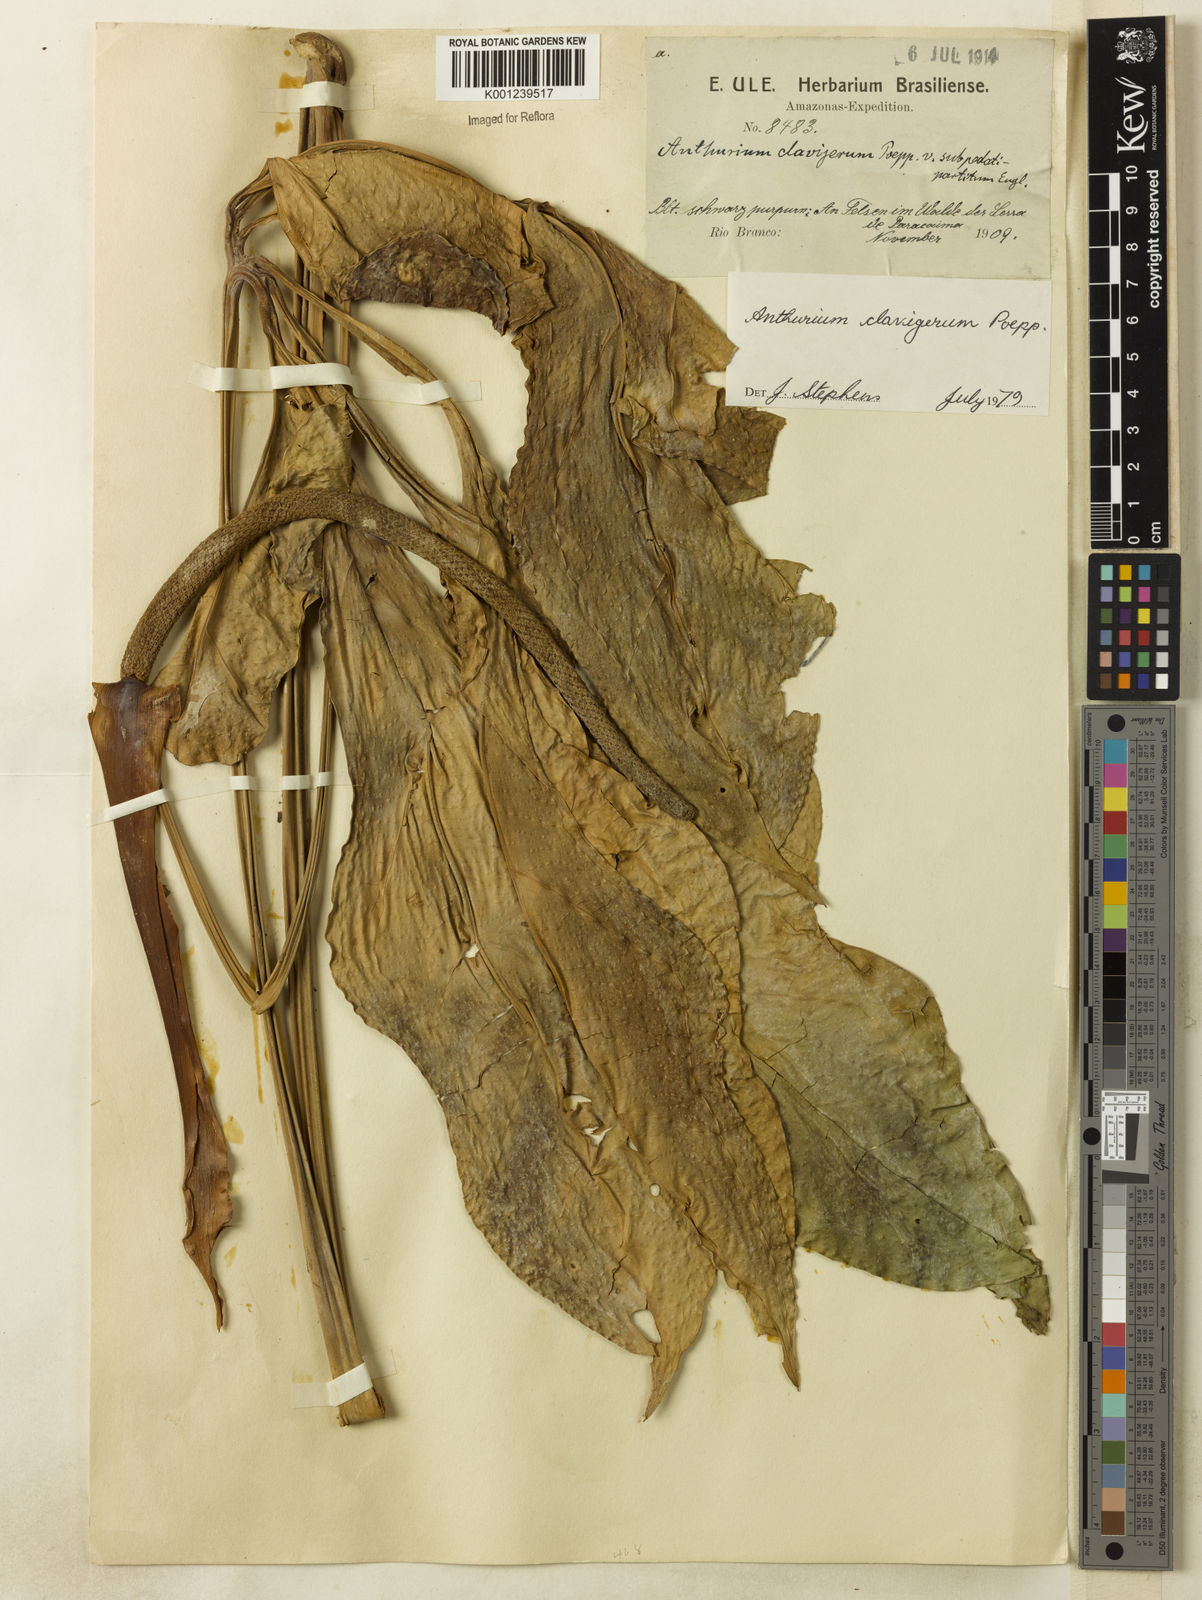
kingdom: Plantae
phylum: Tracheophyta
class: Liliopsida
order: Alismatales
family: Araceae
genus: Anthurium
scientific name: Anthurium clavigerum
